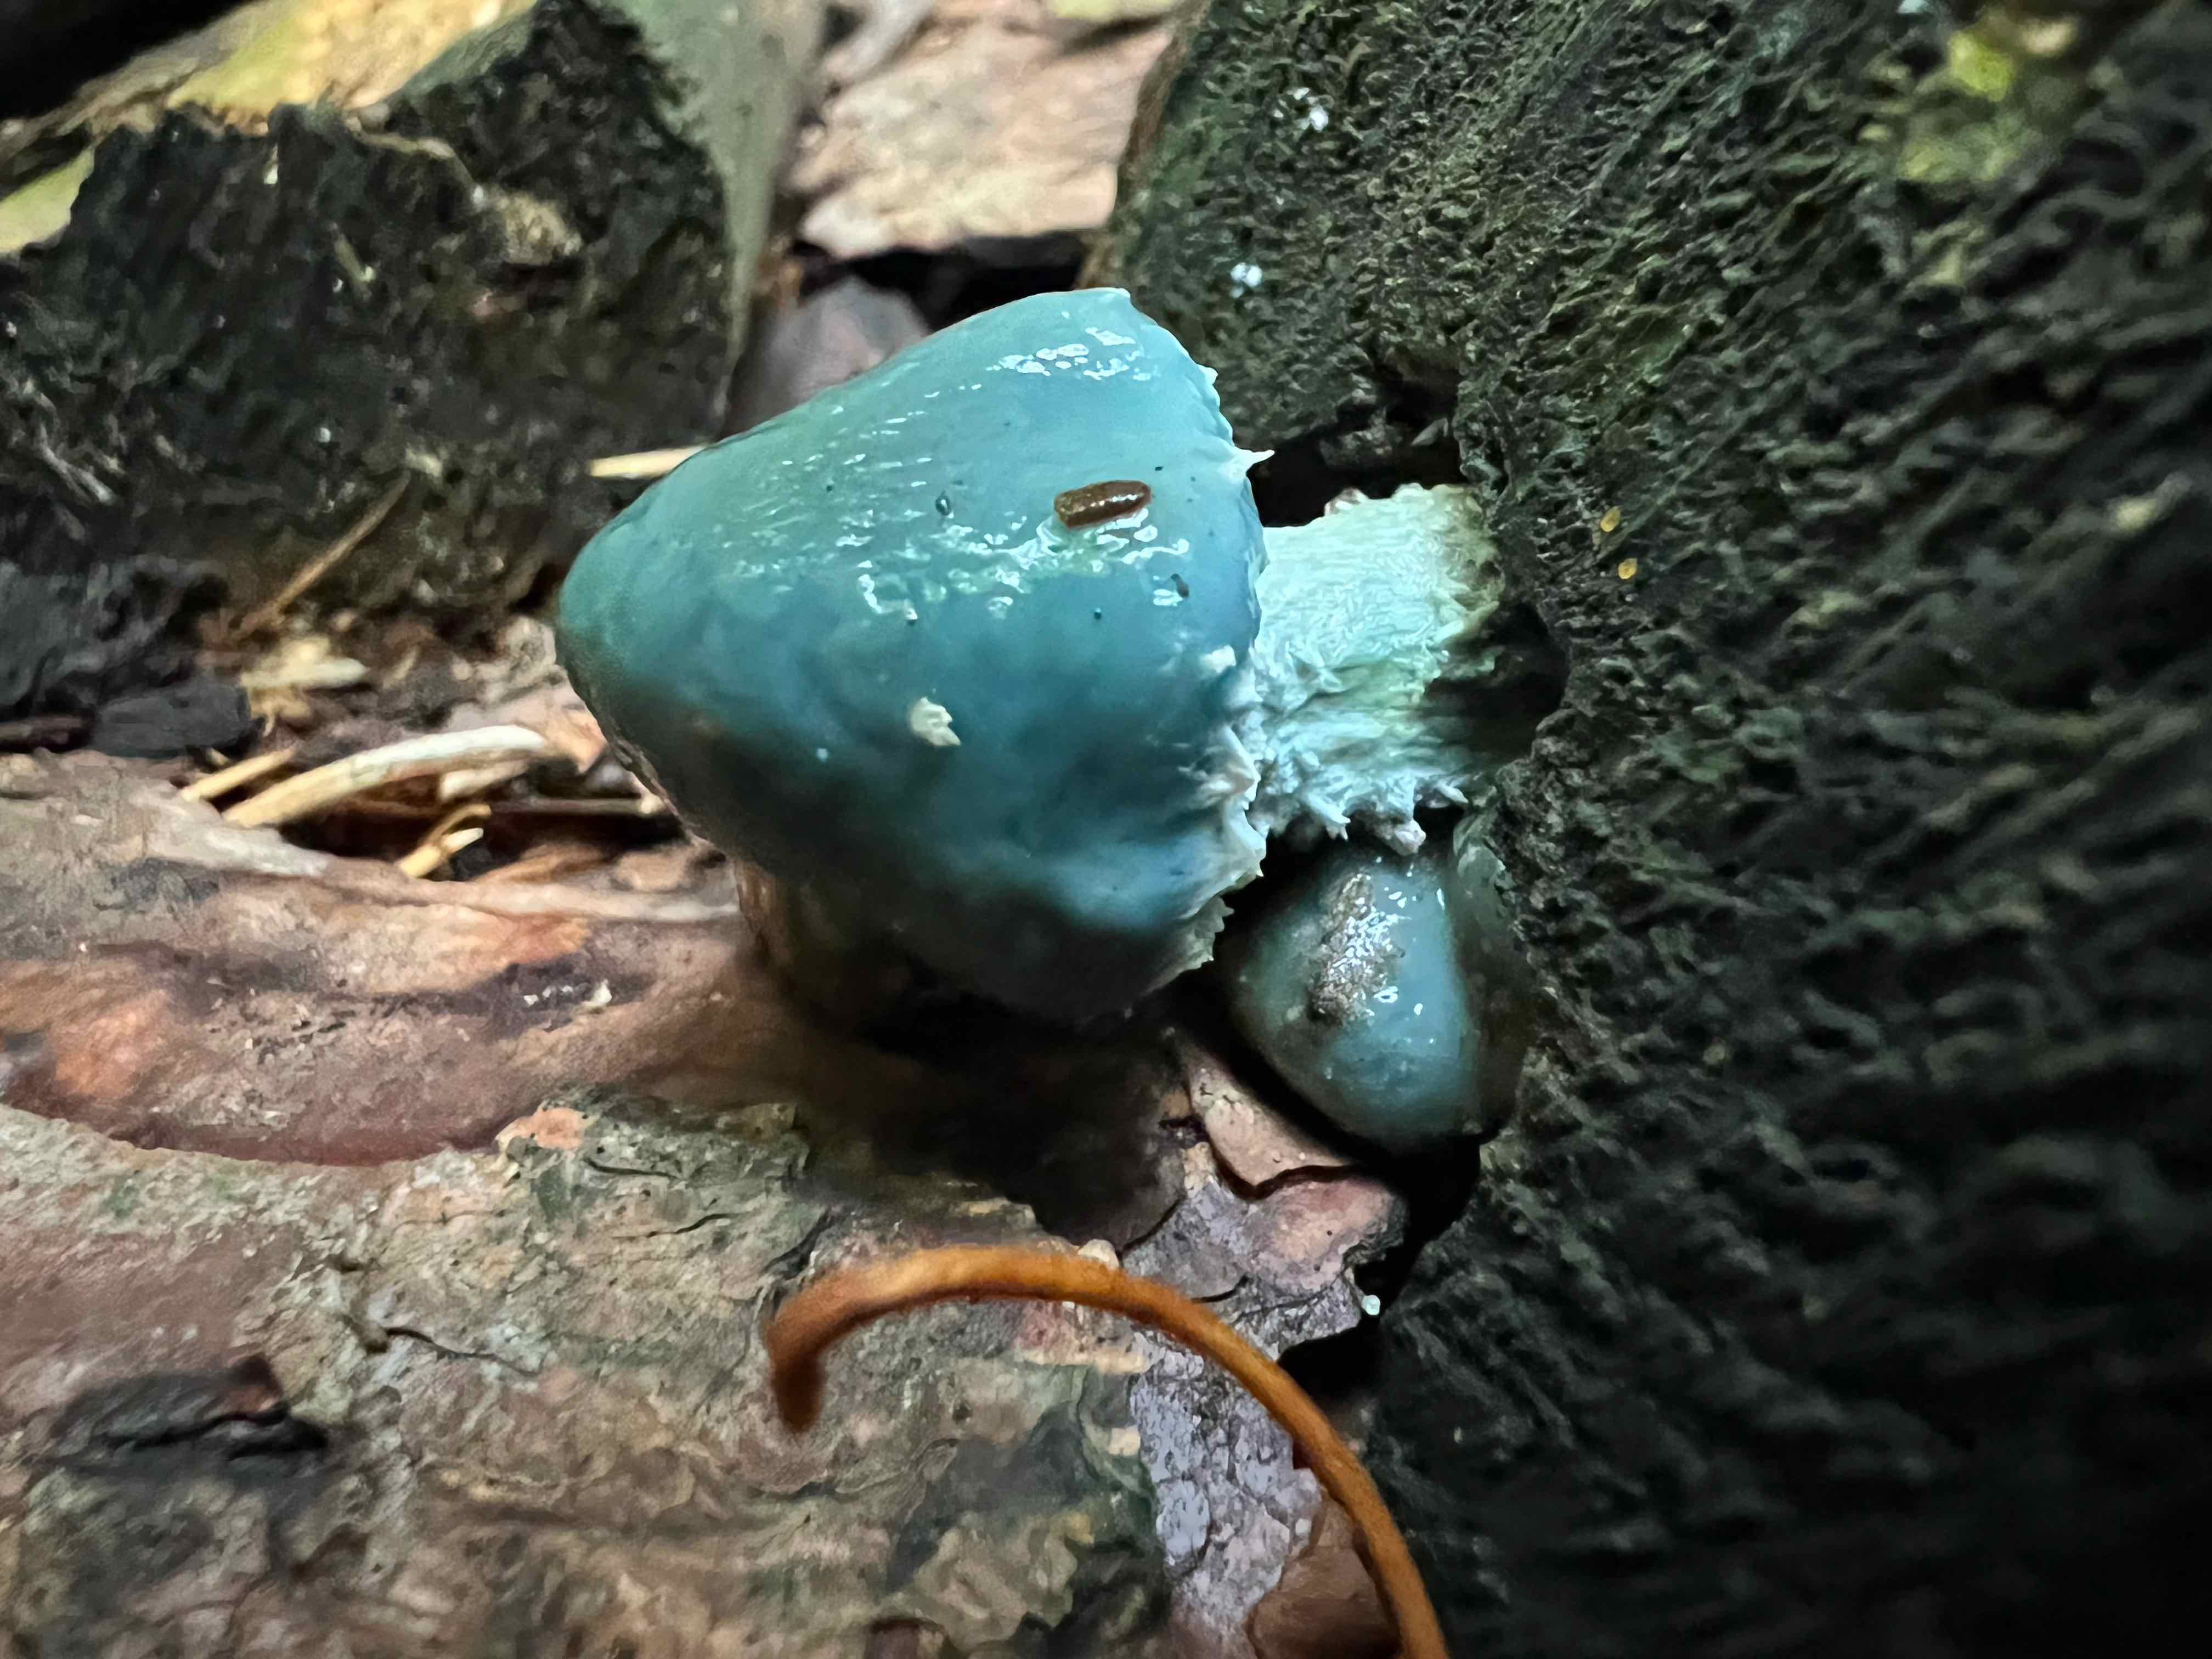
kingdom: Fungi
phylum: Basidiomycota
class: Agaricomycetes
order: Agaricales
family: Strophariaceae
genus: Stropharia
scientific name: Stropharia
